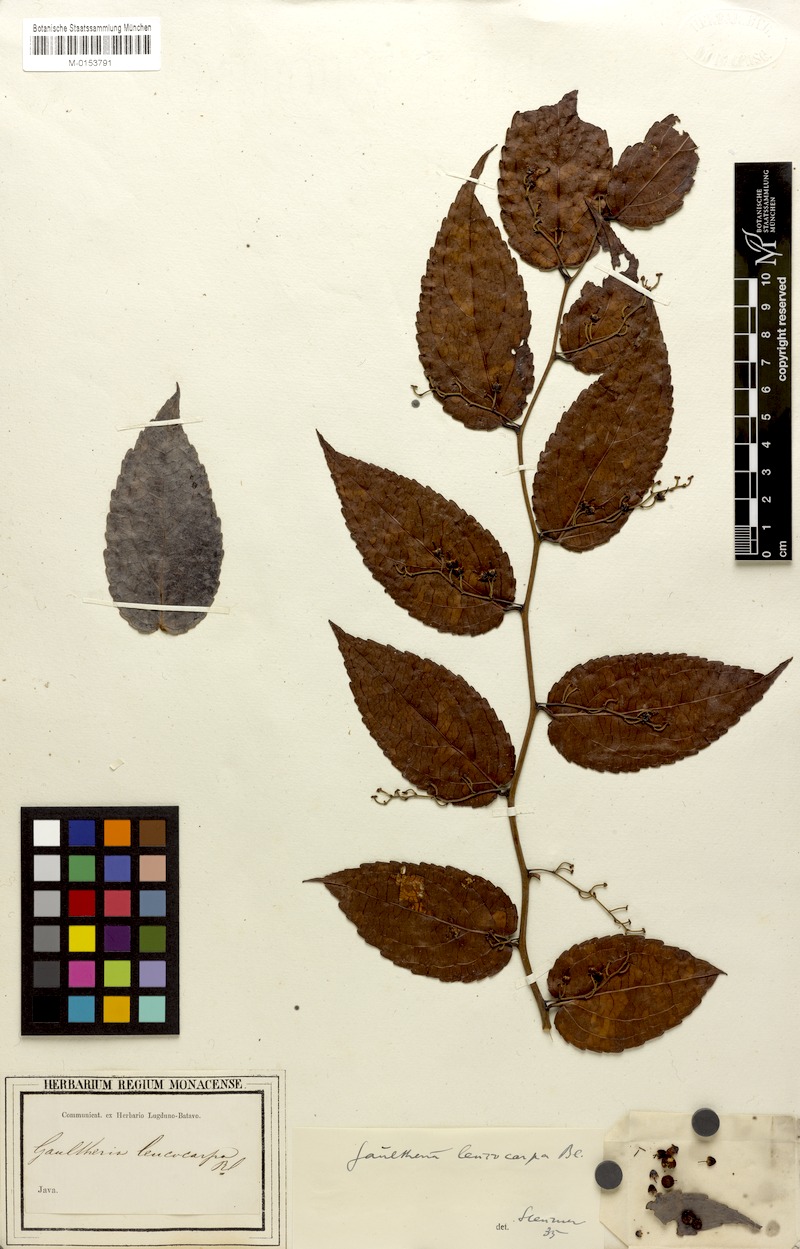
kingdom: Plantae
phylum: Tracheophyta
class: Magnoliopsida
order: Ericales
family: Ericaceae
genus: Gaultheria
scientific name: Gaultheria leucocarpa
